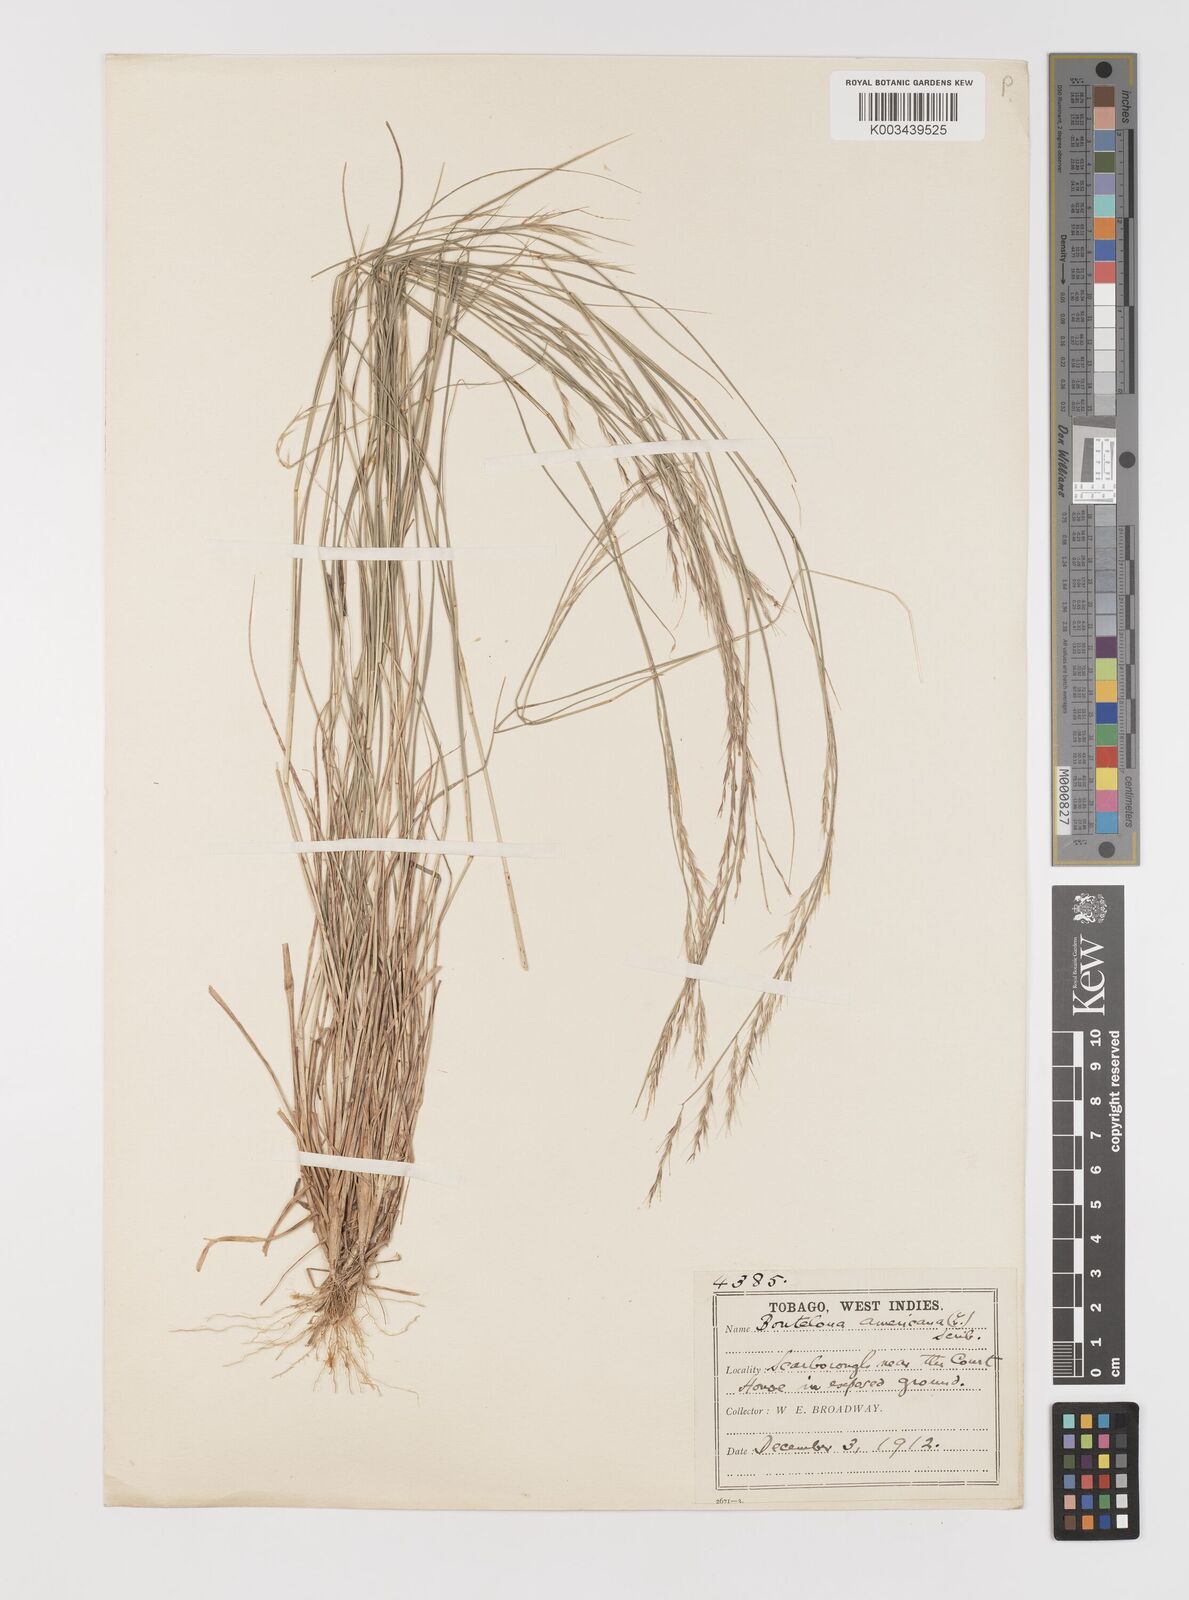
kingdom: Plantae
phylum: Tracheophyta
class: Liliopsida
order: Poales
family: Poaceae
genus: Bouteloua
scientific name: Bouteloua americana
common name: Mule grass
